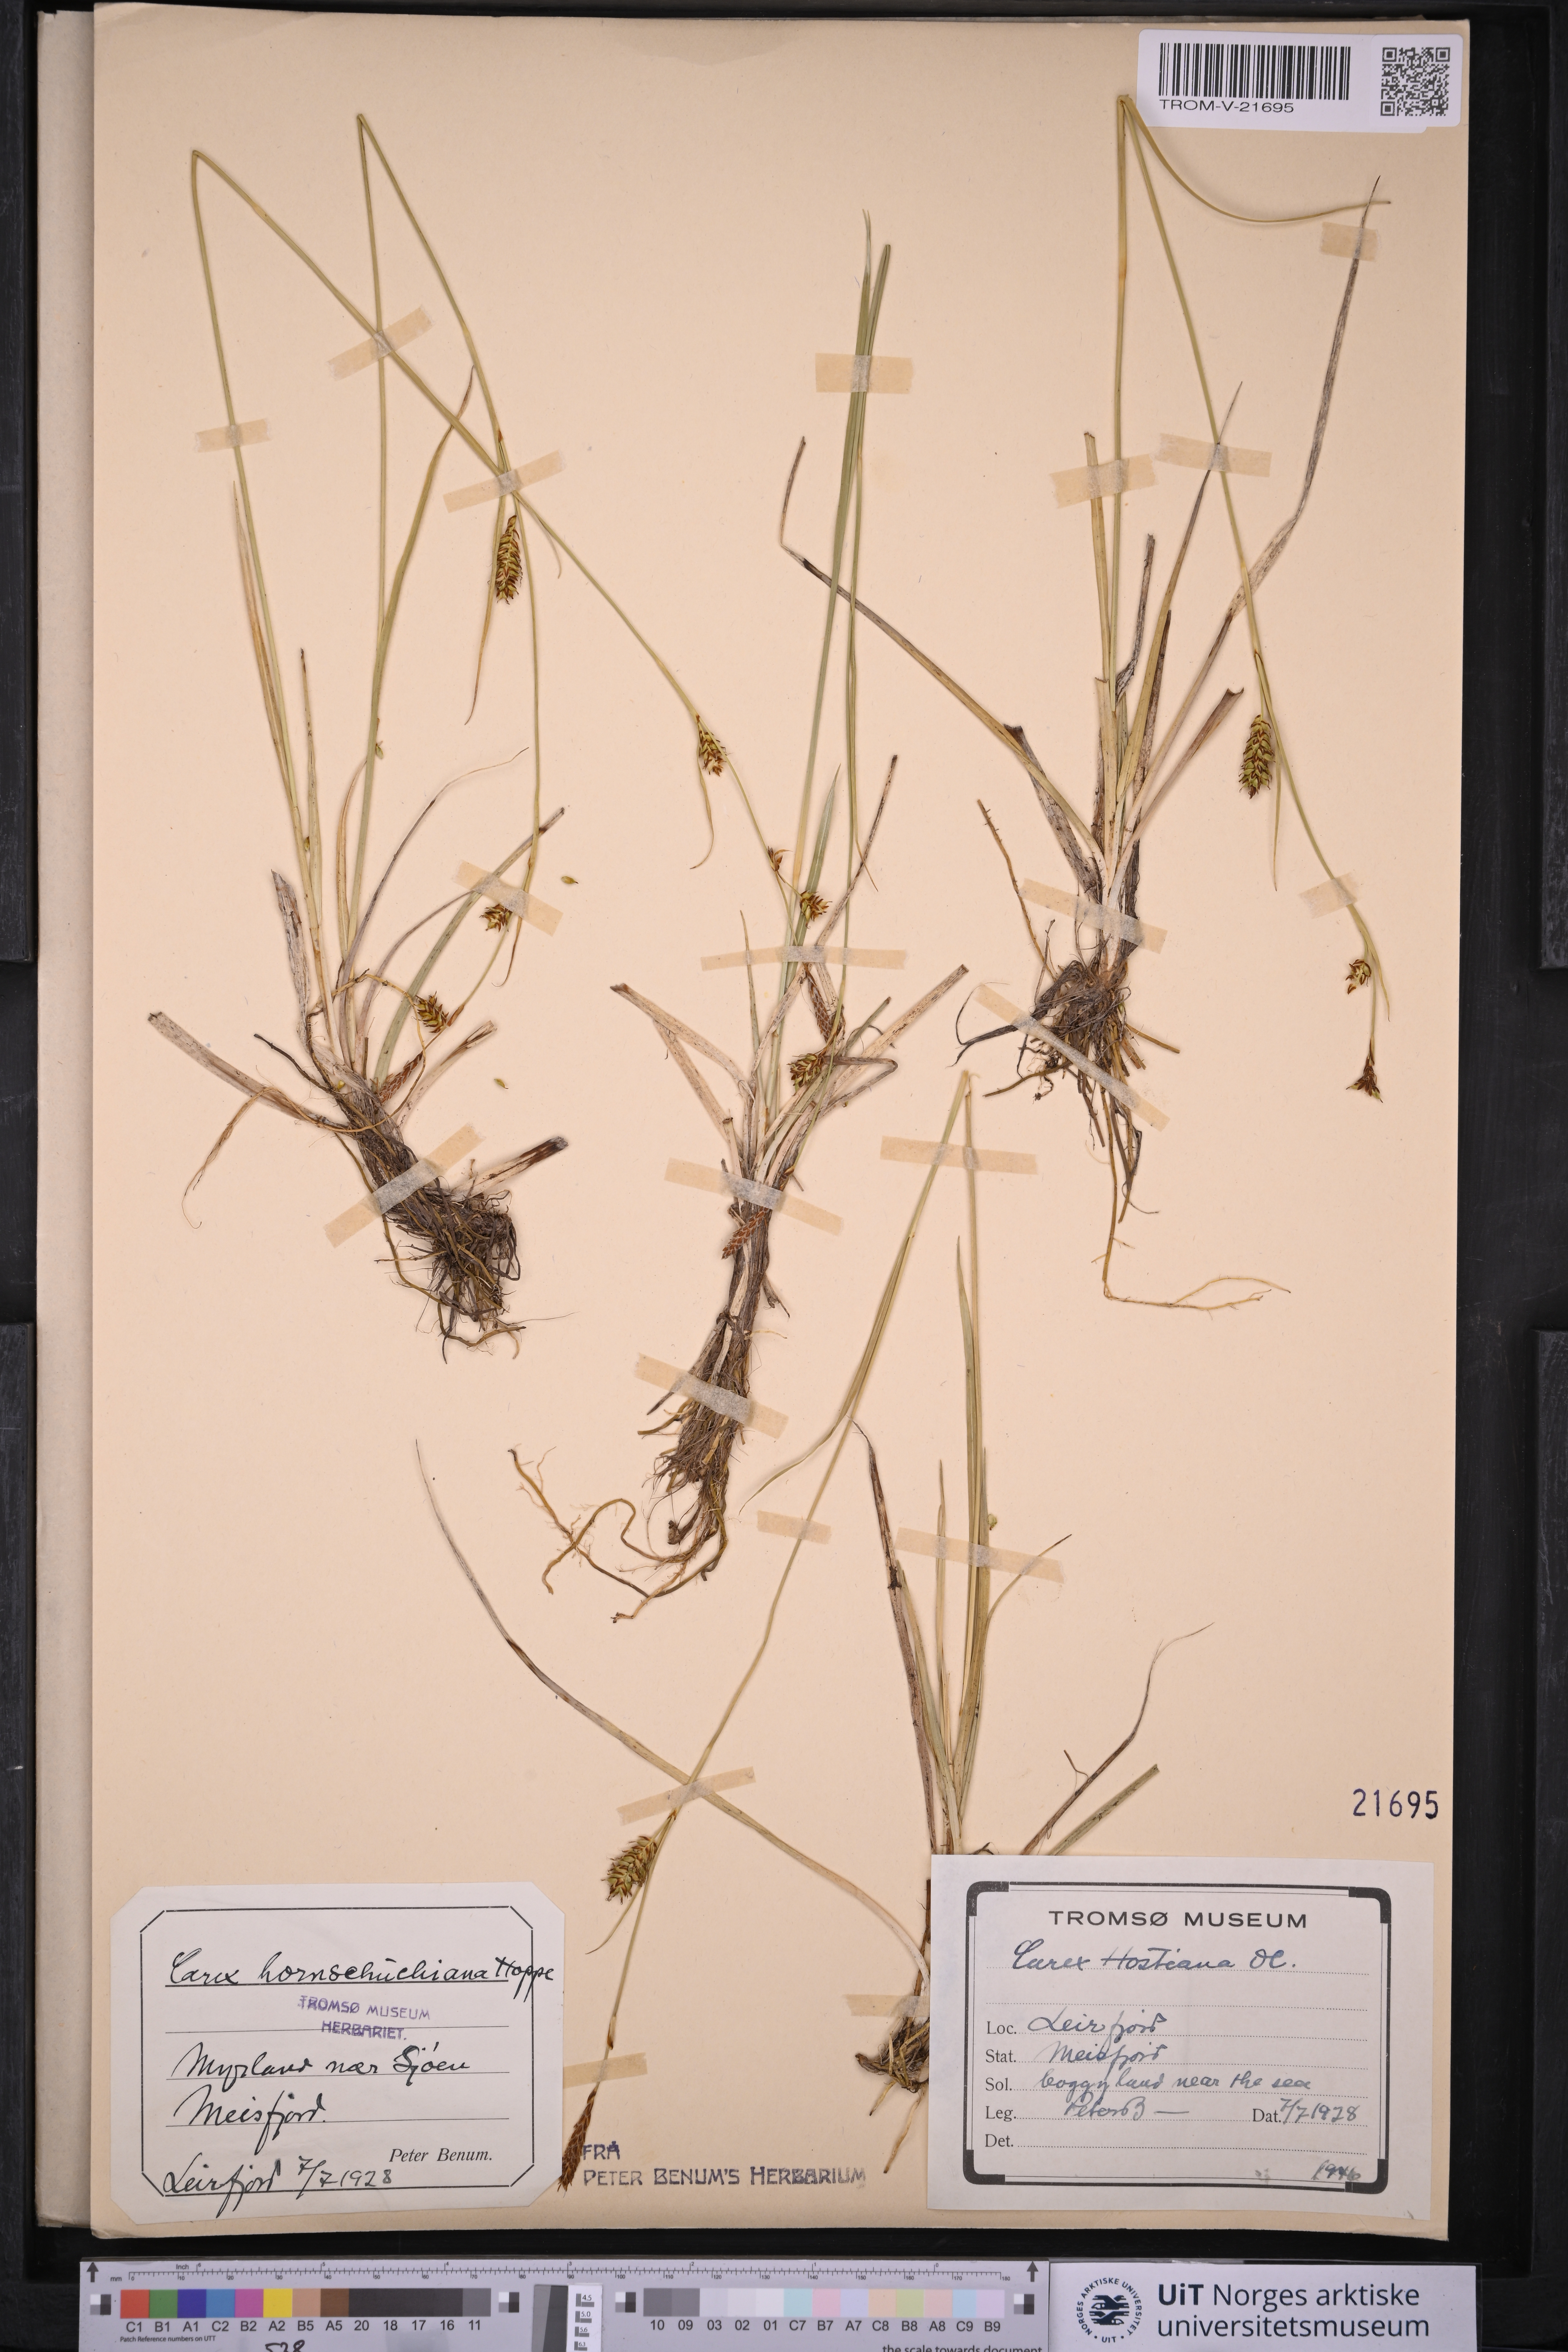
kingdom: Plantae
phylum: Tracheophyta
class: Liliopsida
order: Poales
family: Cyperaceae
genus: Carex
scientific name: Carex hostiana
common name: Tawny sedge
